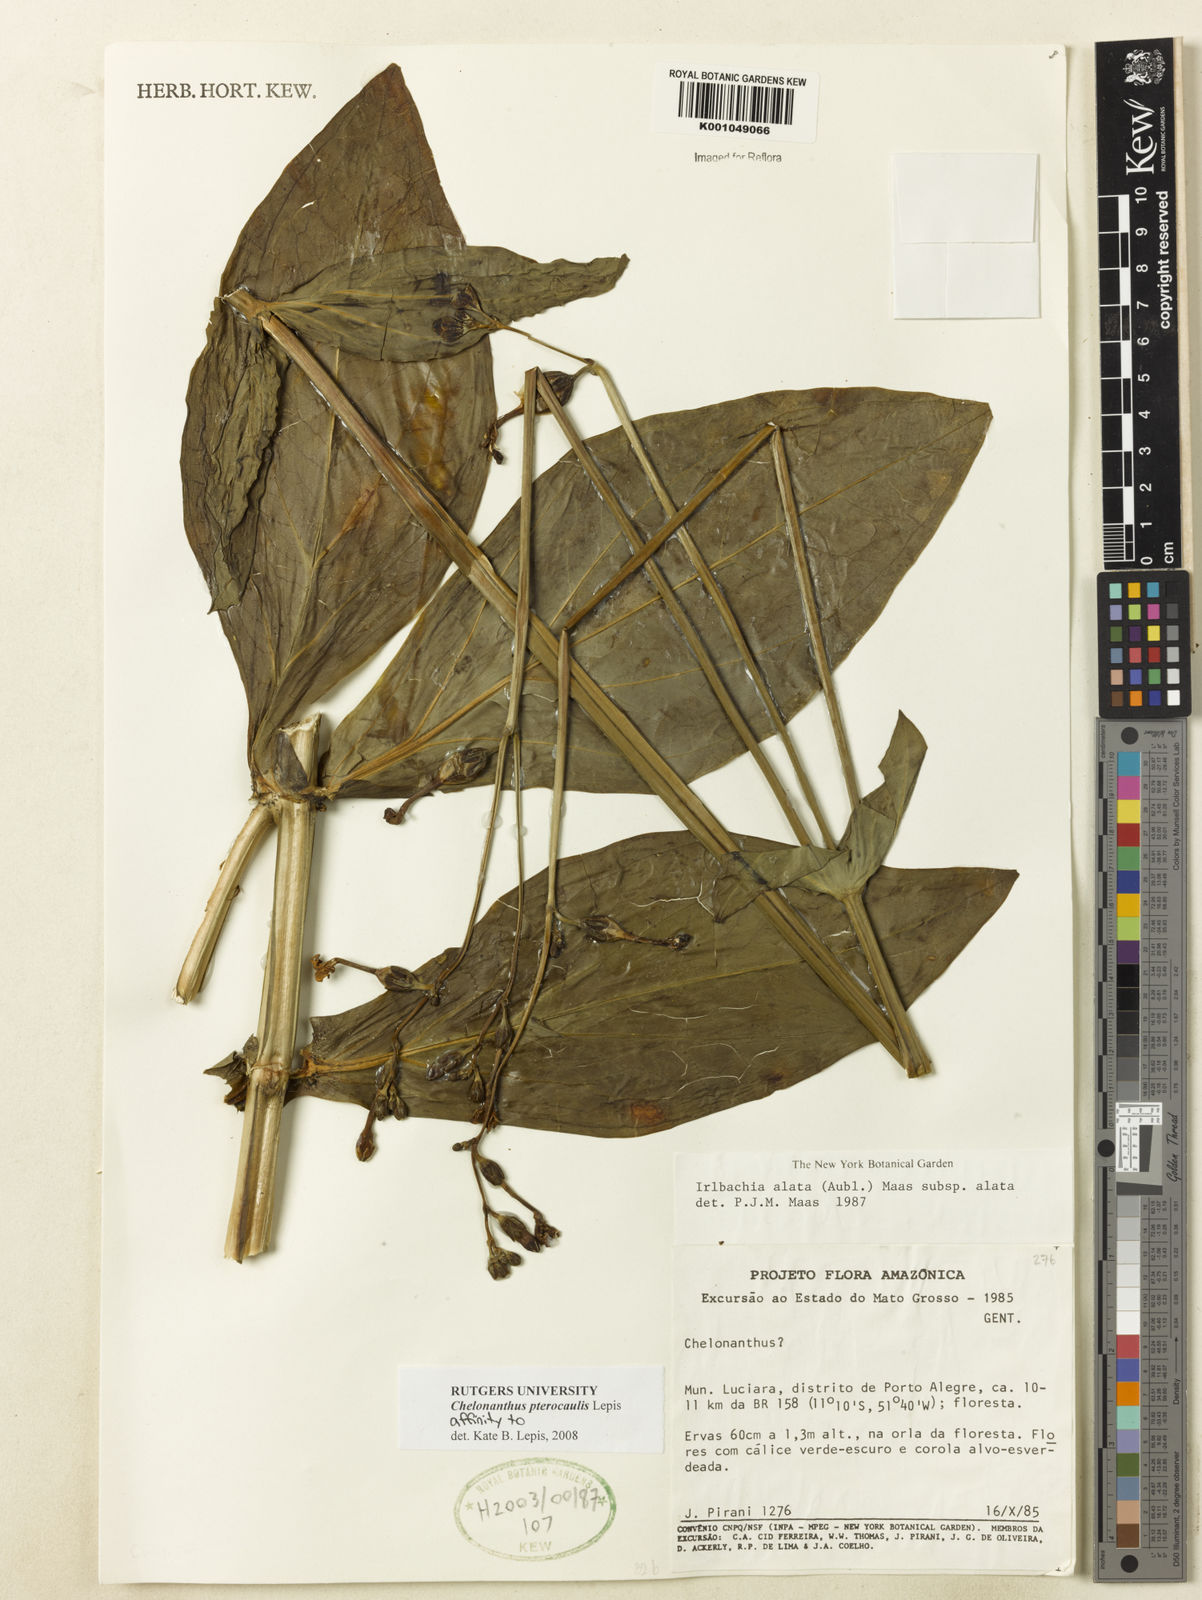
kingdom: Plantae
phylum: Tracheophyta
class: Magnoliopsida
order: Gentianales
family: Gentianaceae
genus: Chelonanthus
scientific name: Chelonanthus pterocaulis
